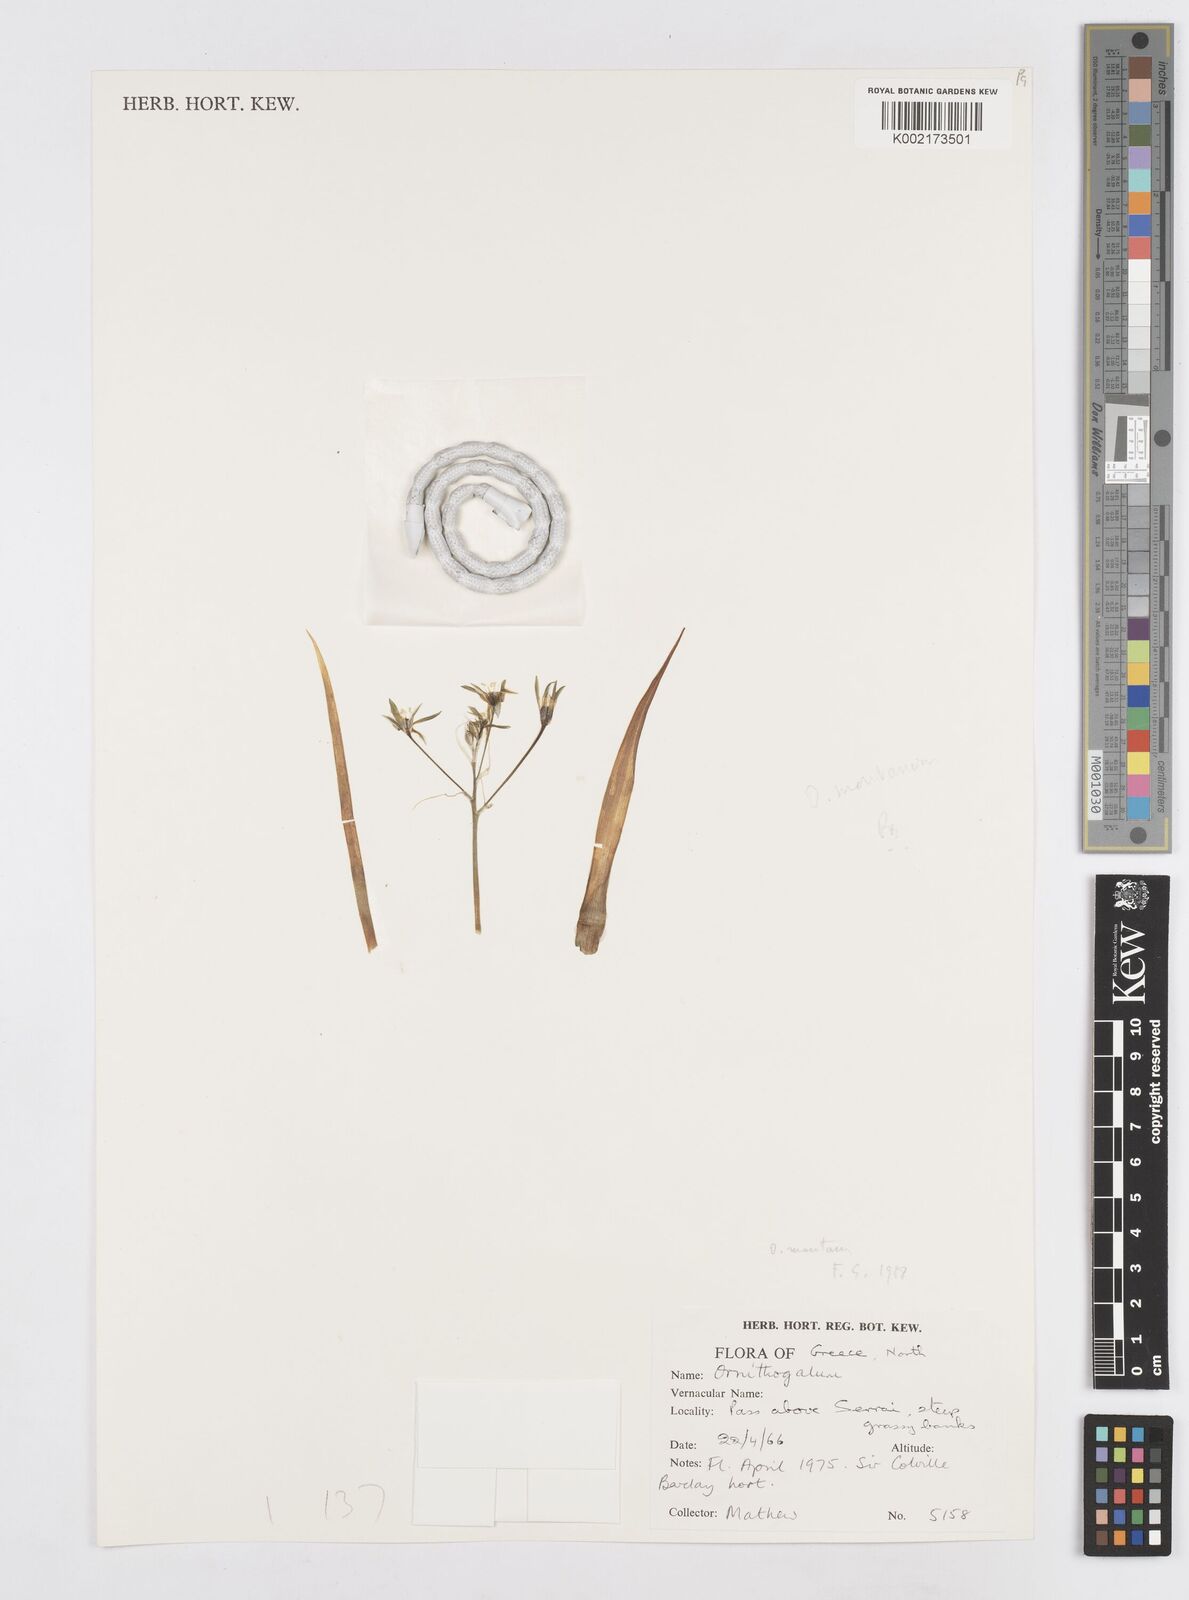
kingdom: Plantae
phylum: Tracheophyta
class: Liliopsida
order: Asparagales
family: Asparagaceae
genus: Ornithogalum
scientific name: Ornithogalum montanum
